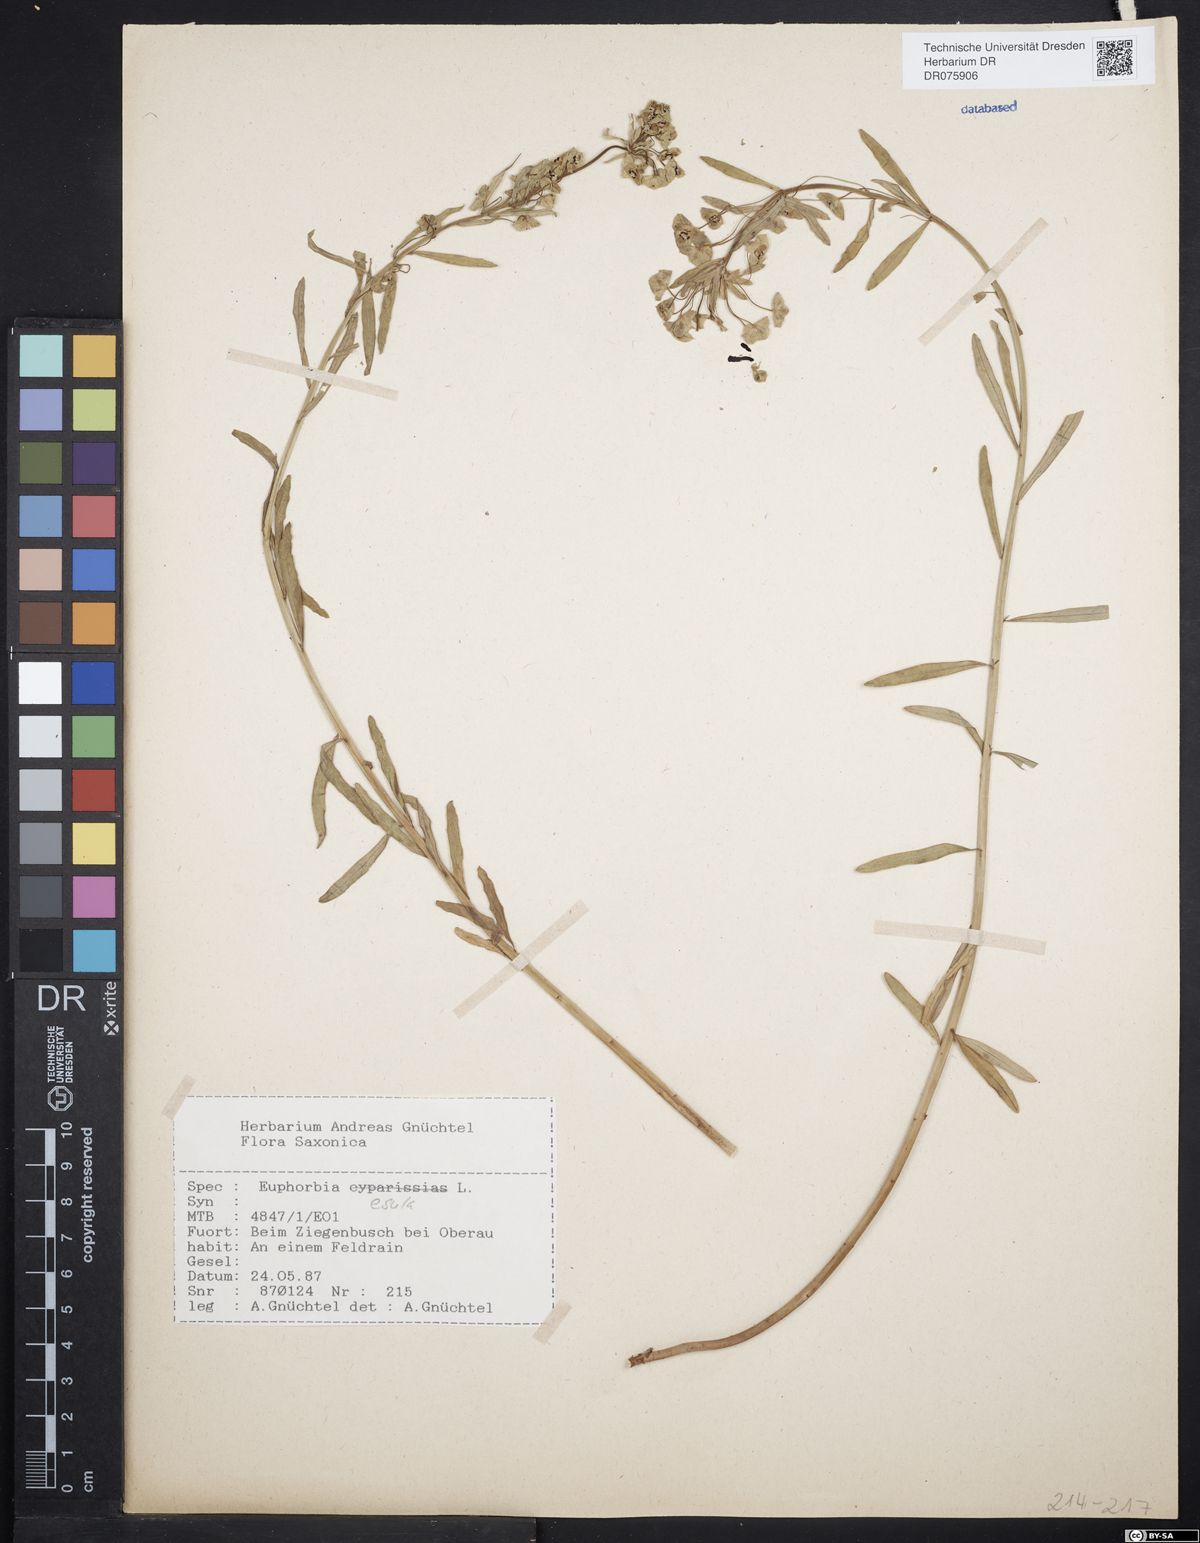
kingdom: Plantae
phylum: Tracheophyta
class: Magnoliopsida
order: Malpighiales
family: Euphorbiaceae
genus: Euphorbia
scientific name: Euphorbia esula
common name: Leafy spurge
